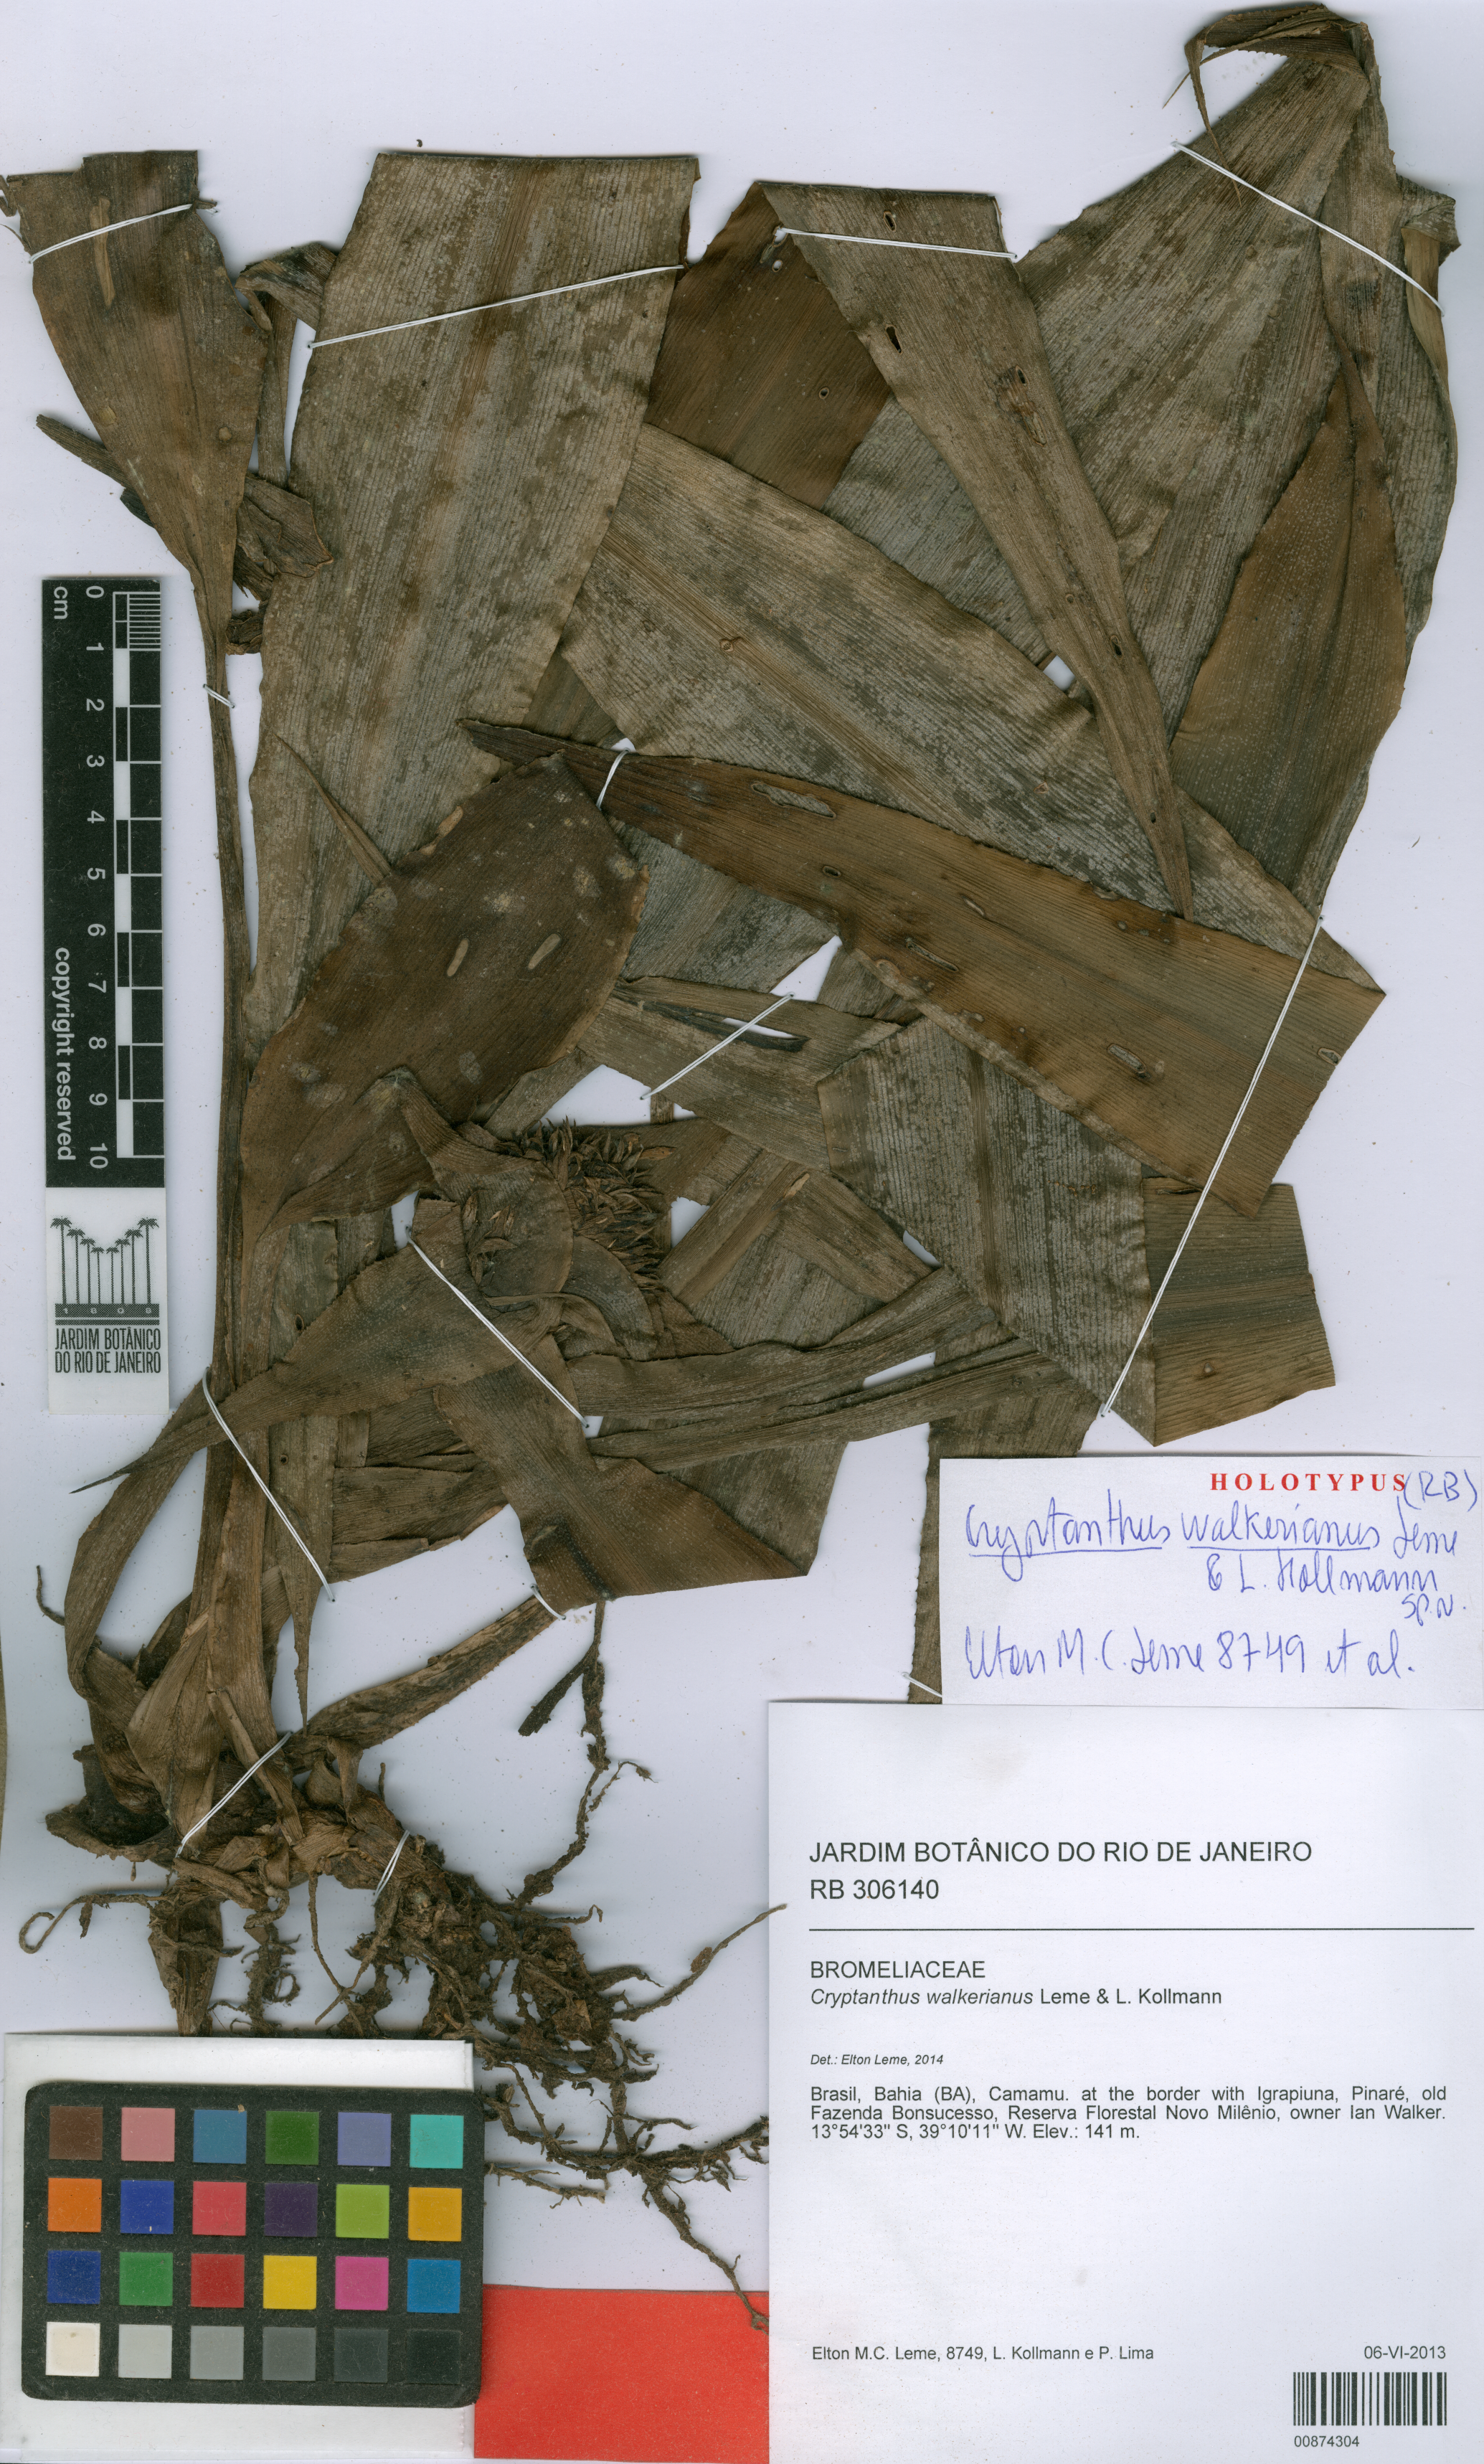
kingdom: Plantae
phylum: Tracheophyta
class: Liliopsida
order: Poales
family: Bromeliaceae
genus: Cryptanthus
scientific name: Cryptanthus walkerianus
